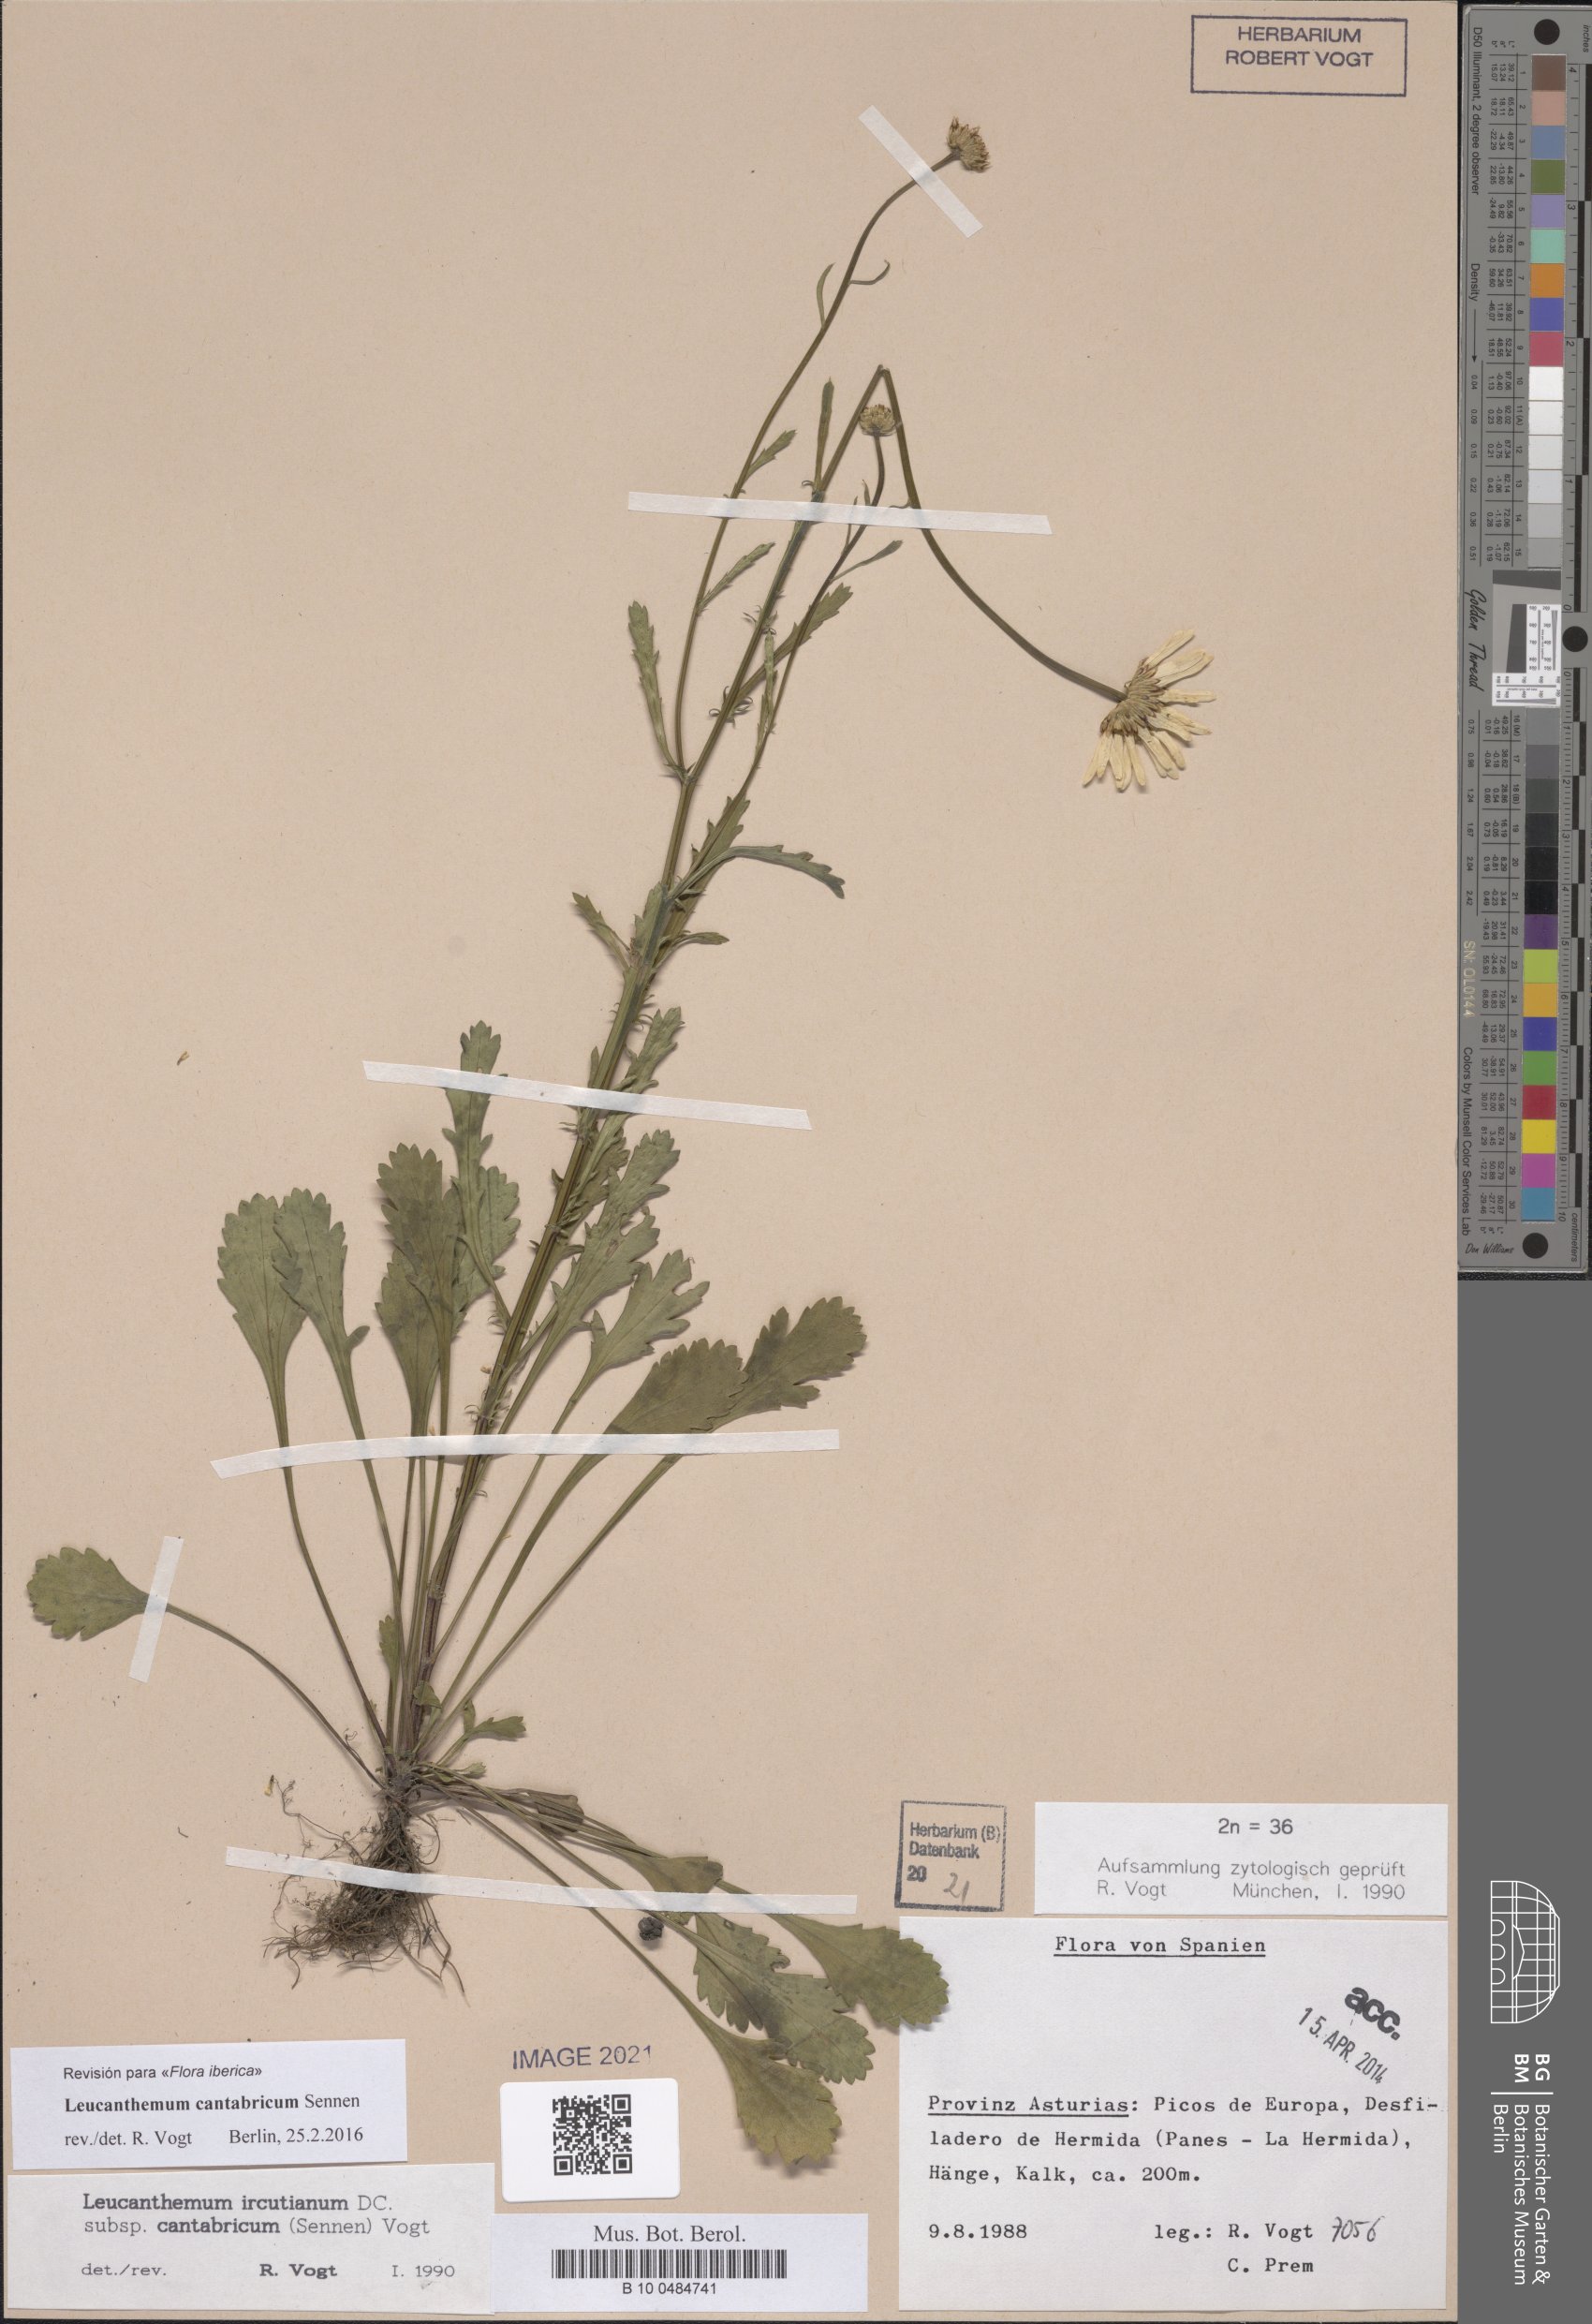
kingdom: Plantae
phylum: Tracheophyta
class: Magnoliopsida
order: Asterales
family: Asteraceae
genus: Leucanthemum
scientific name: Leucanthemum cantabricum
